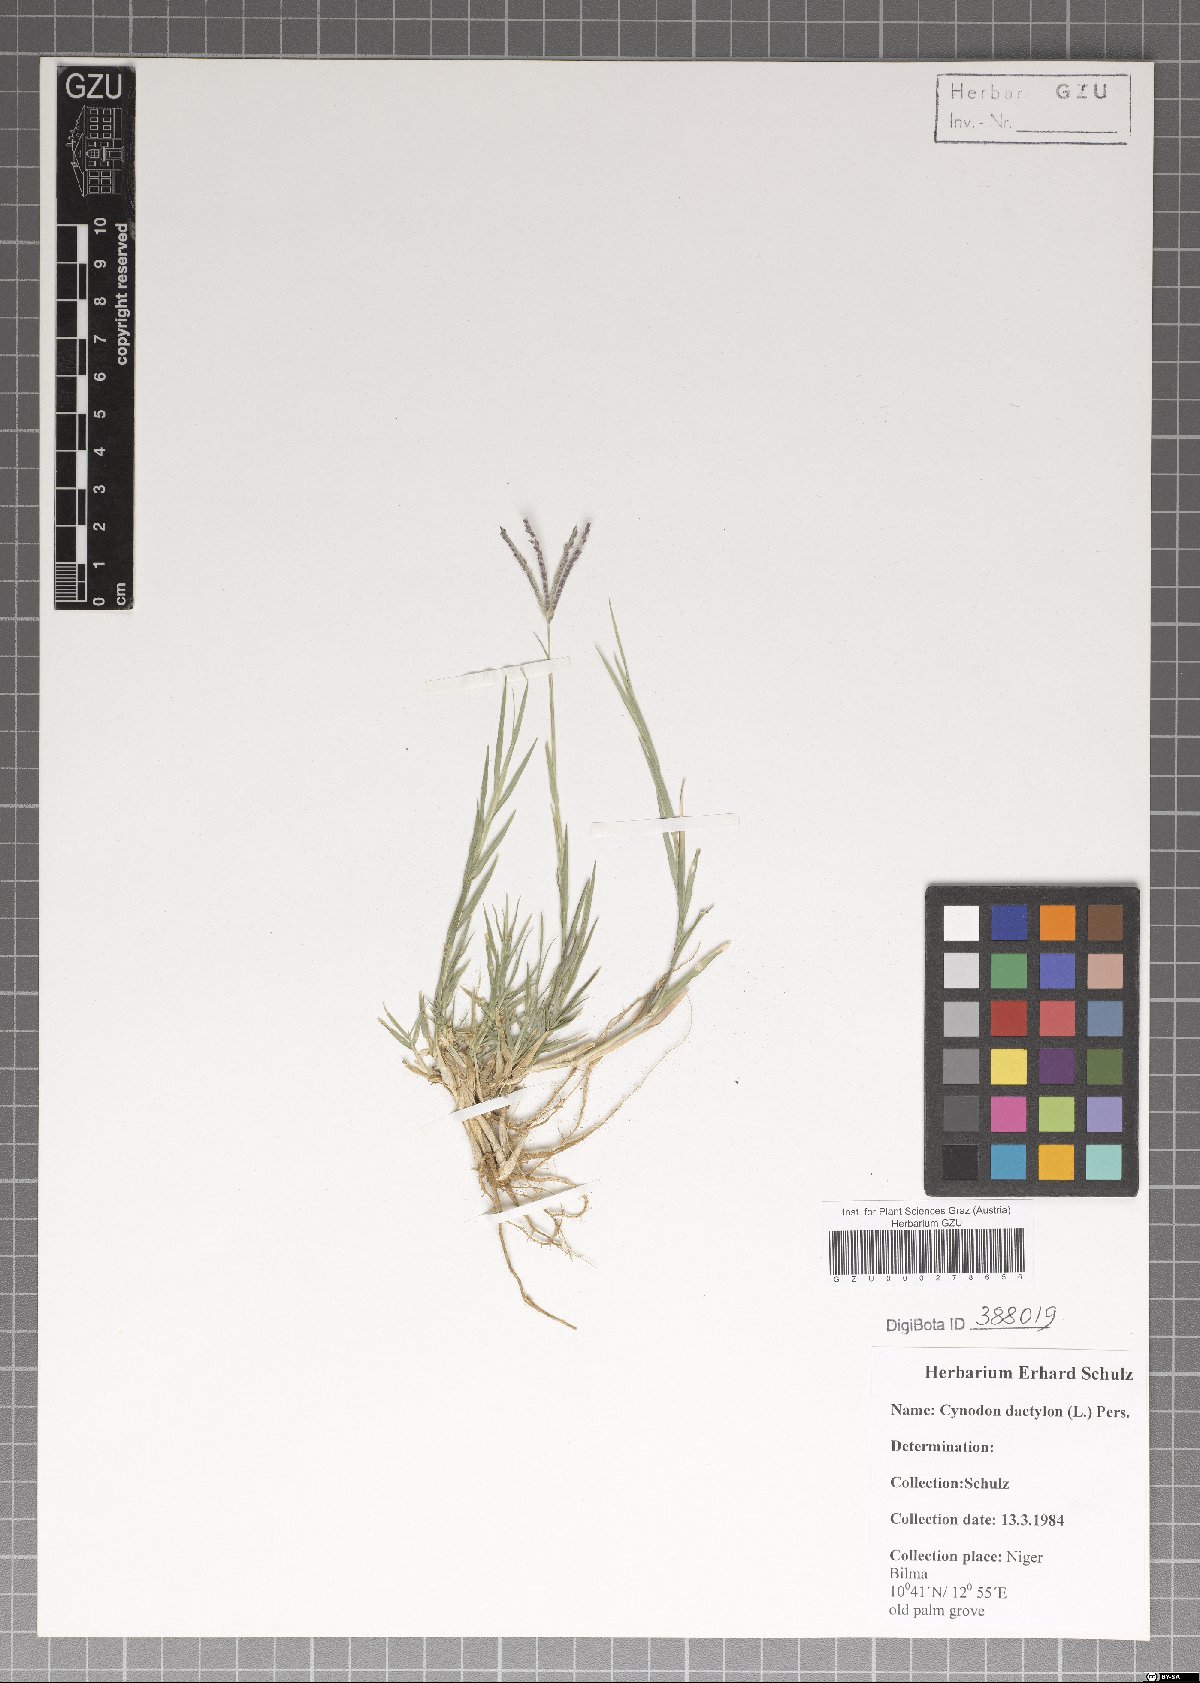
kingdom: Plantae
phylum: Tracheophyta
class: Liliopsida
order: Poales
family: Poaceae
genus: Cynodon
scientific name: Cynodon dactylon
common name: Bermuda grass
